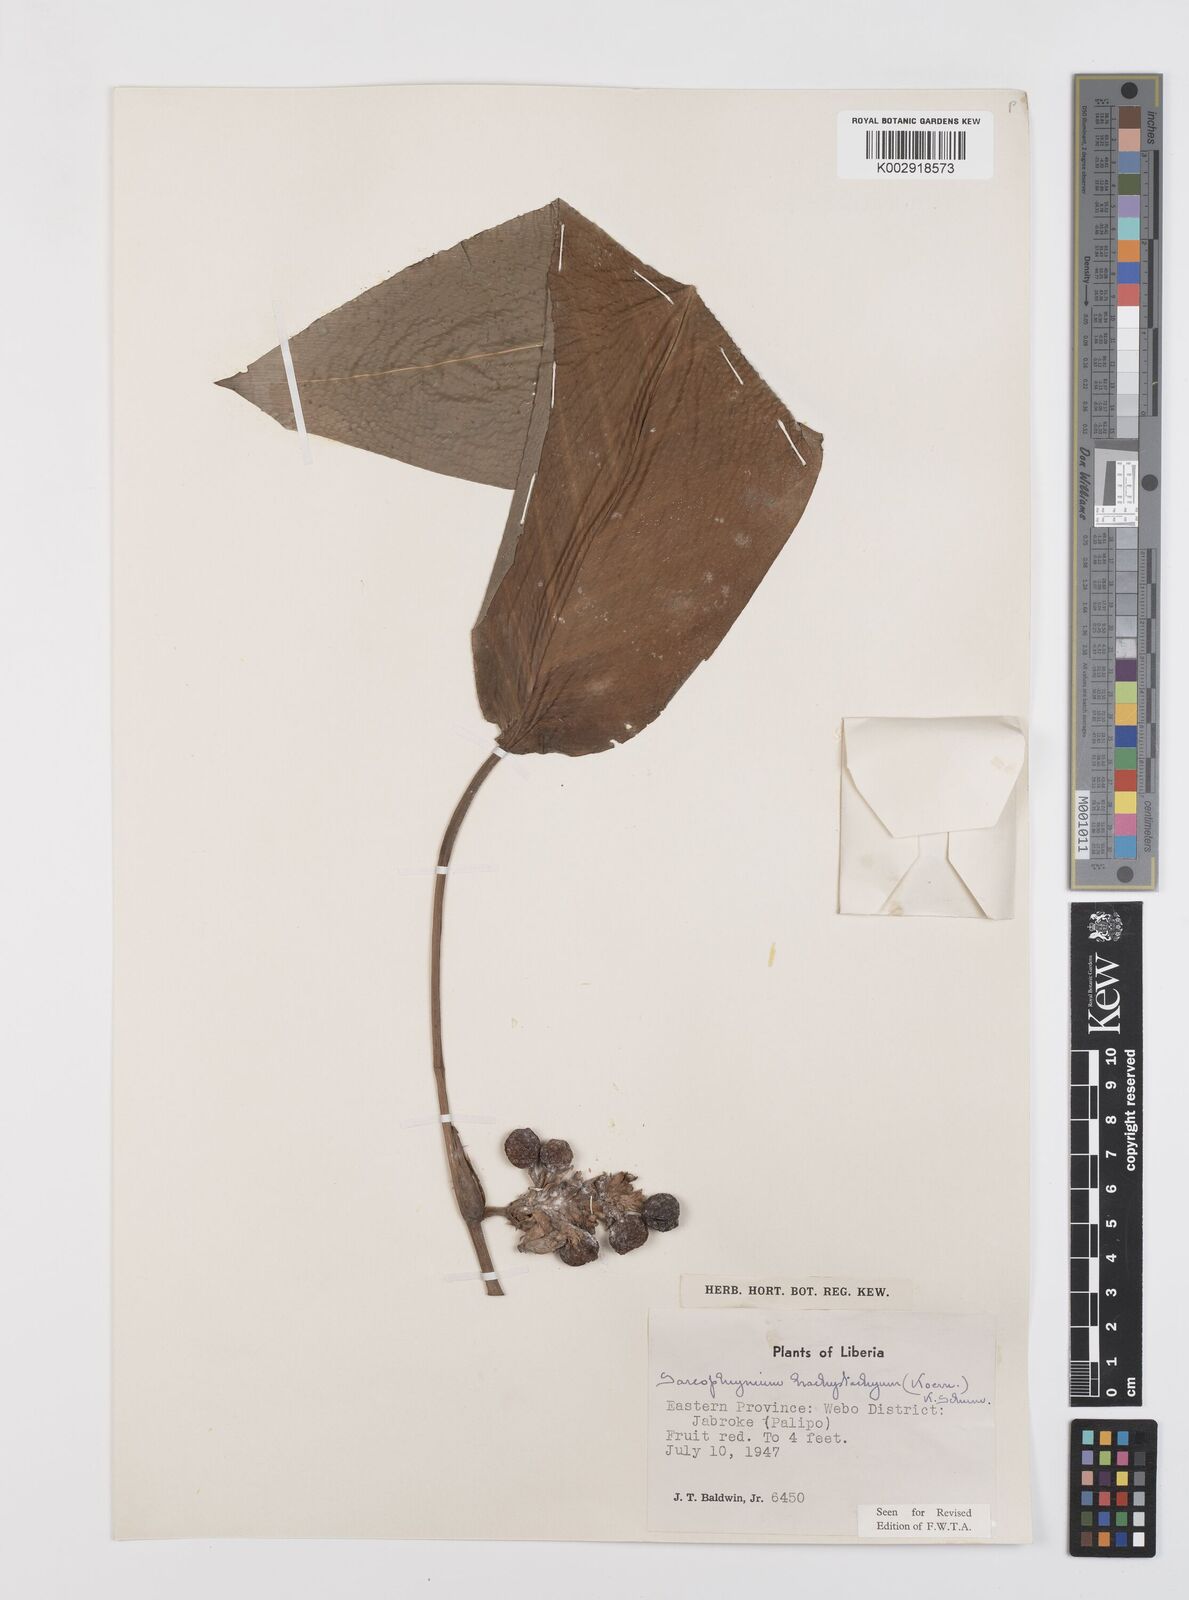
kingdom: Plantae
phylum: Tracheophyta
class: Liliopsida
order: Zingiberales
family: Marantaceae
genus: Sarcophrynium
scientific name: Sarcophrynium brachystachyum
